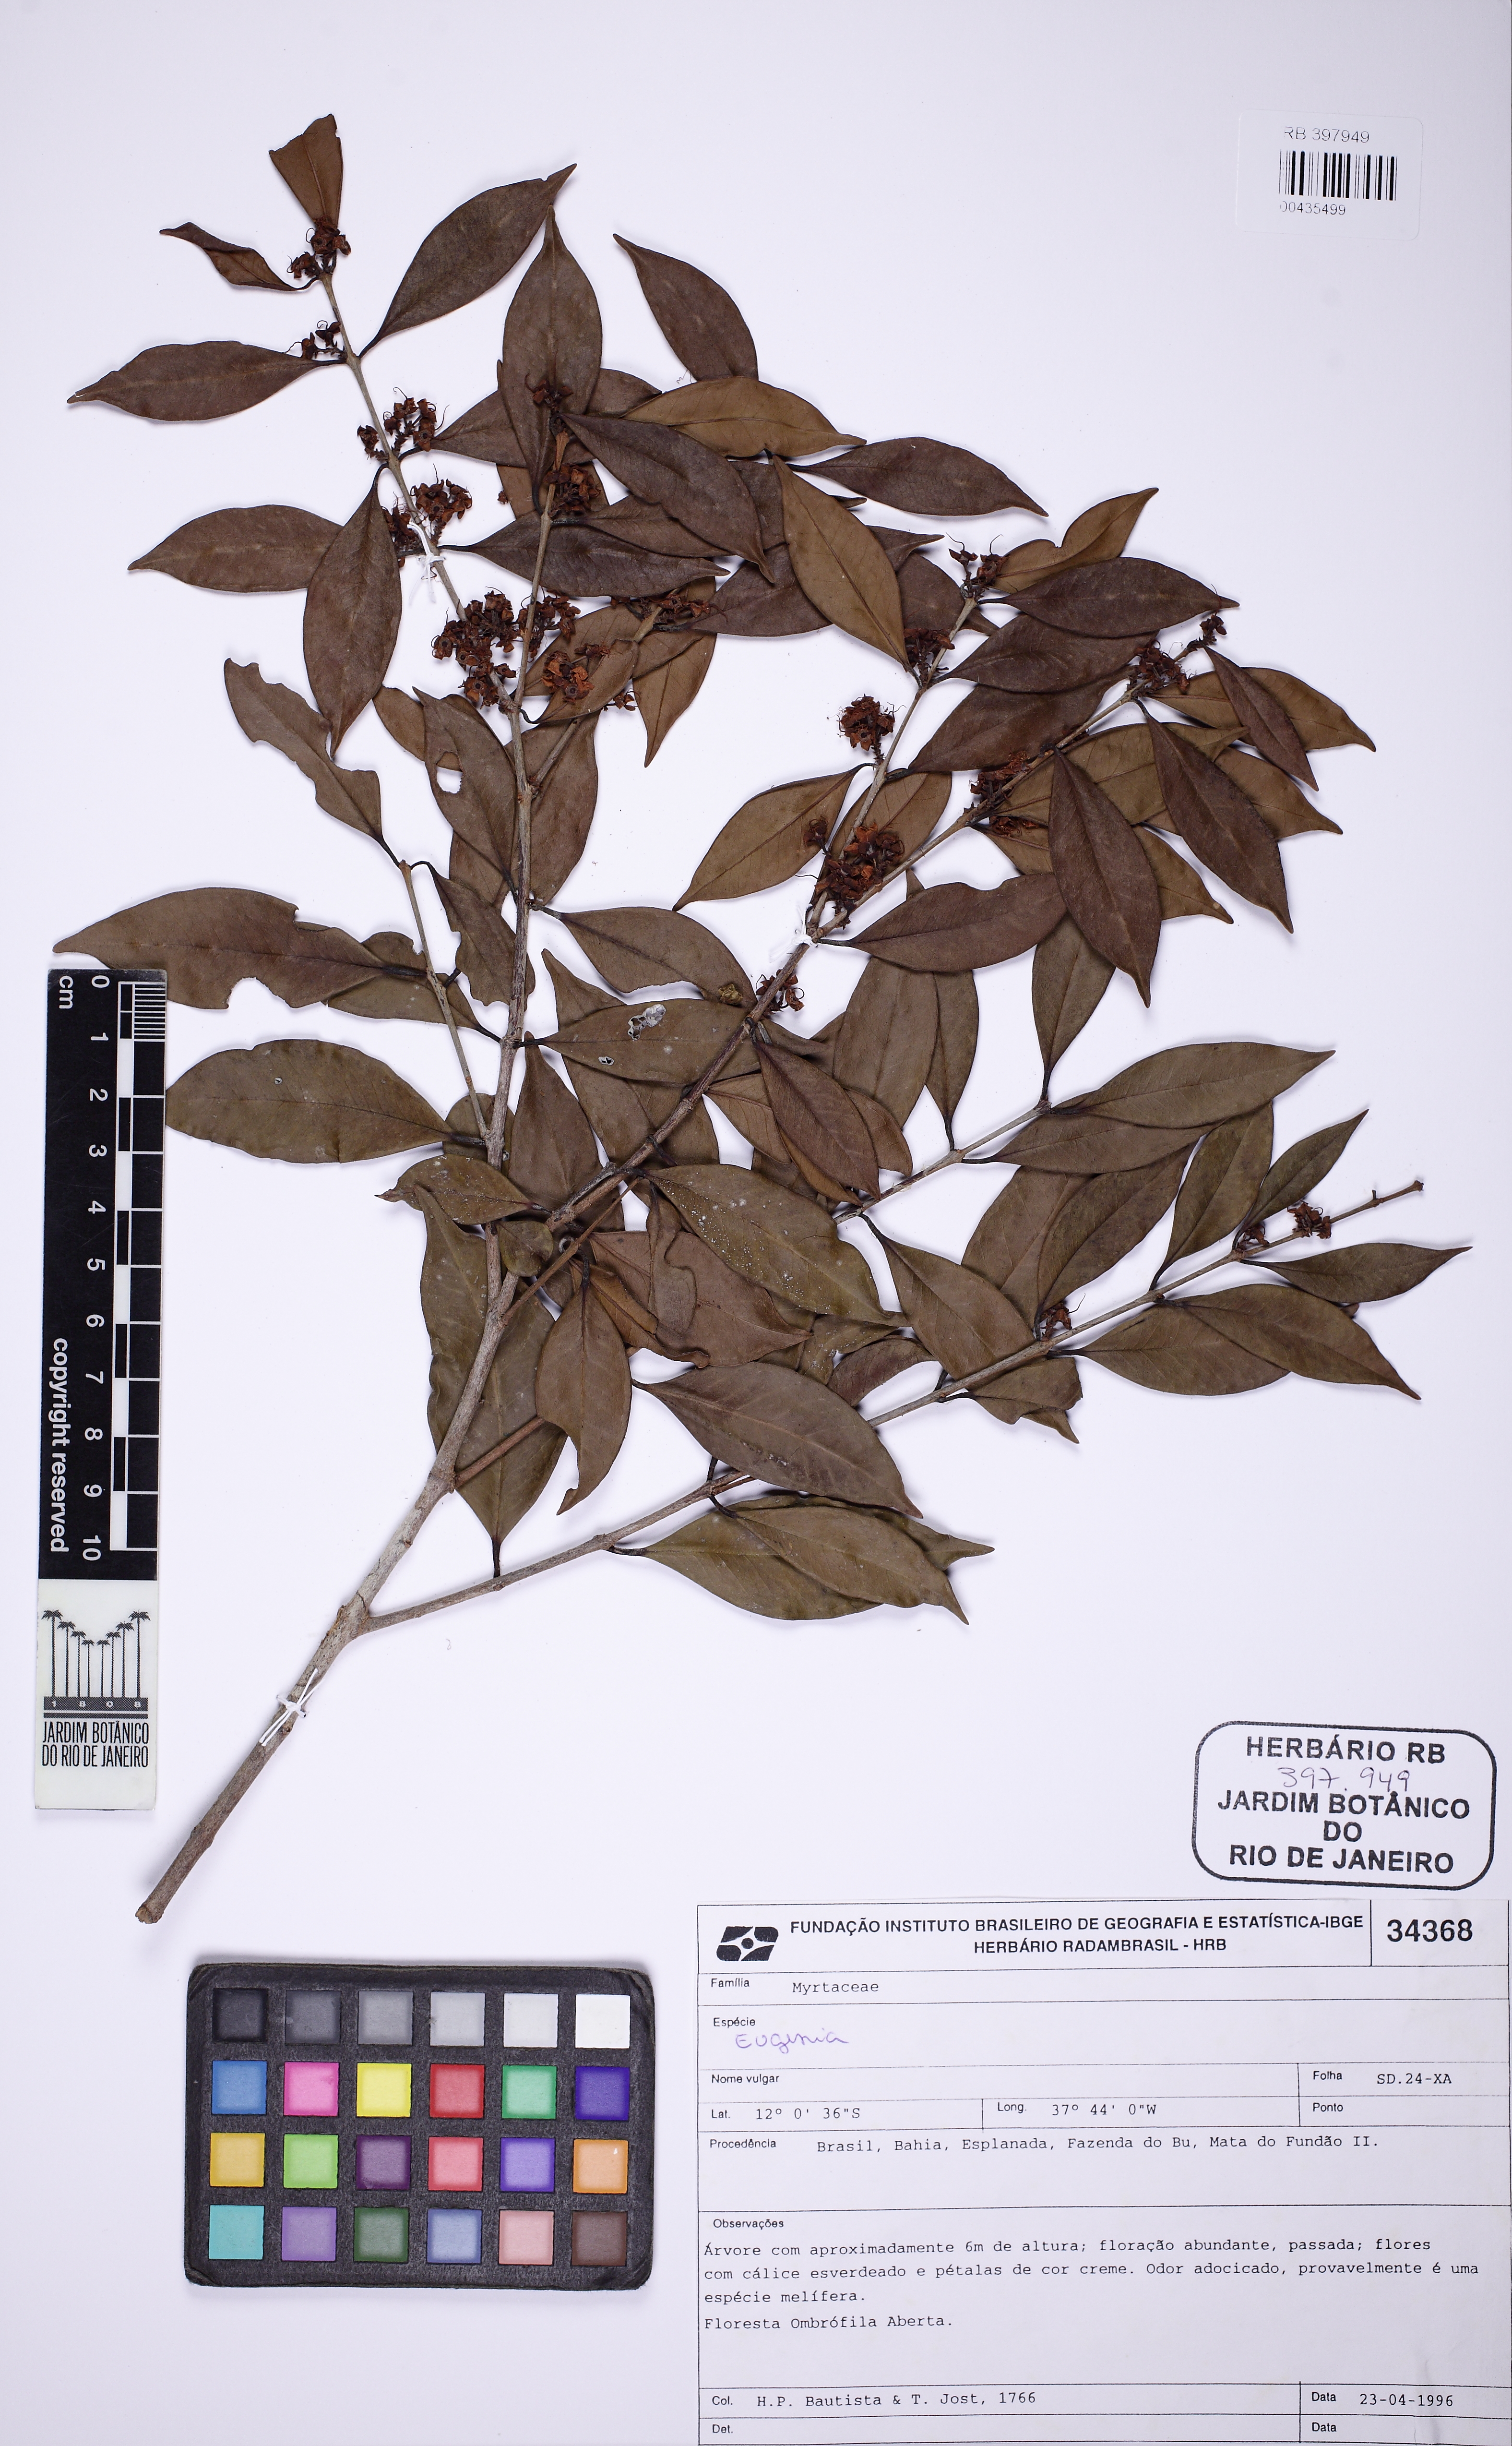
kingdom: Plantae
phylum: Tracheophyta
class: Magnoliopsida
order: Myrtales
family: Myrtaceae
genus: Eugenia
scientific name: Eugenia
